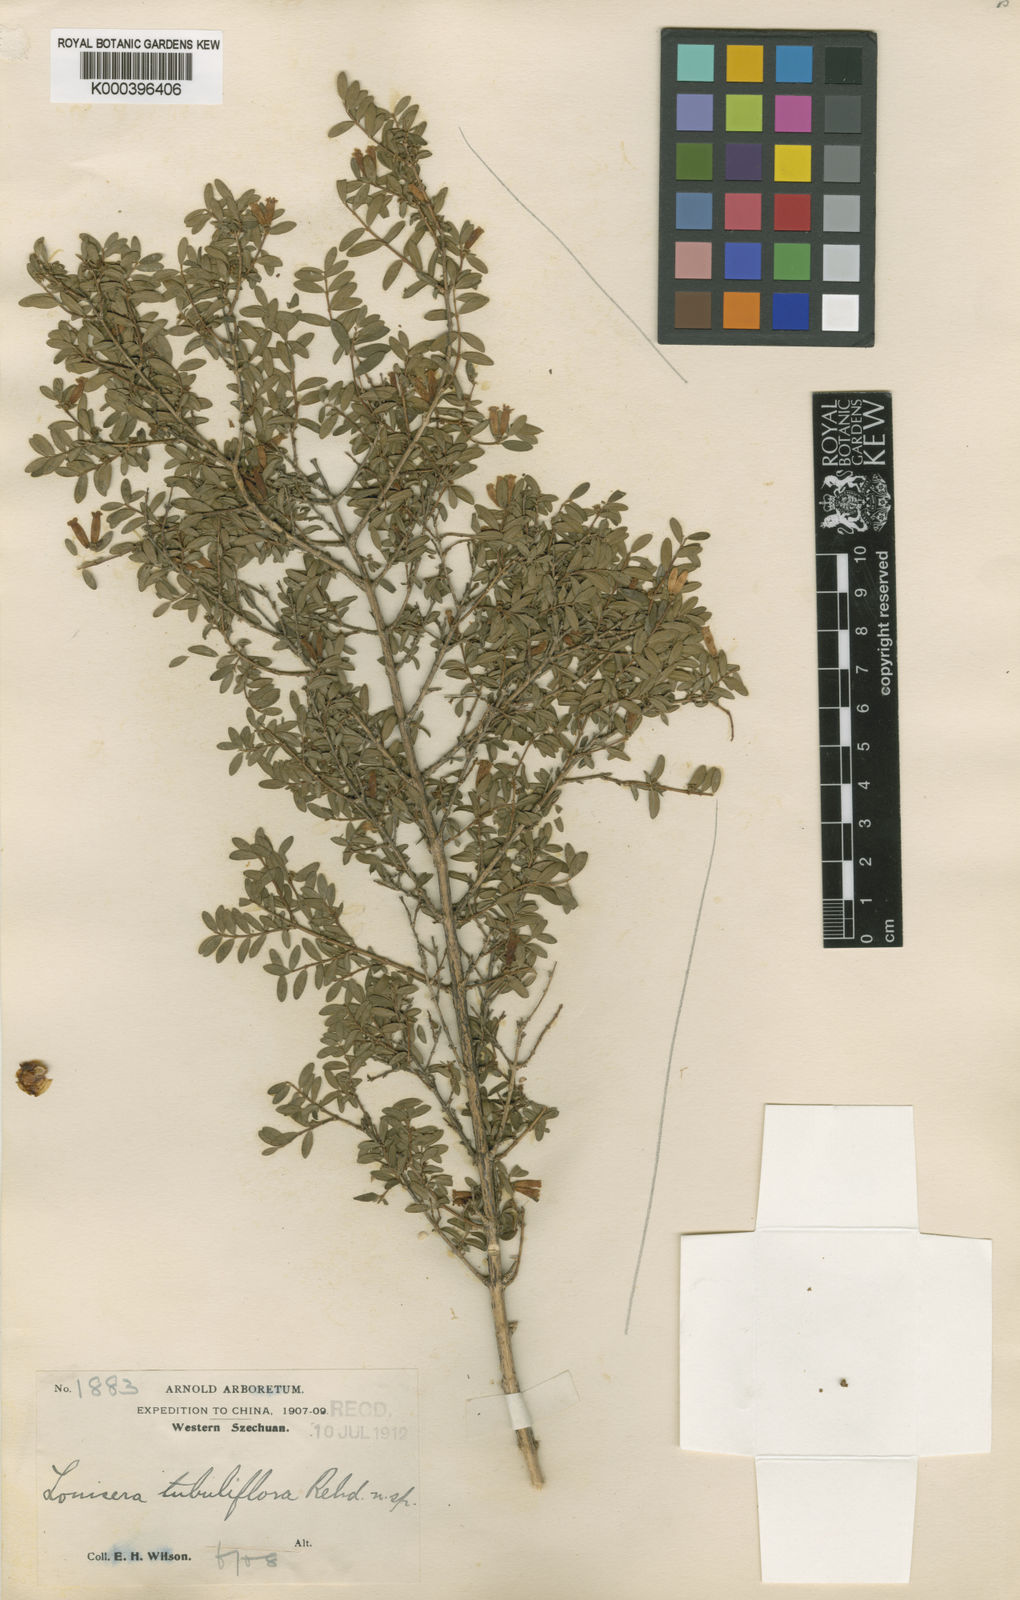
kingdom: Plantae
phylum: Tracheophyta
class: Magnoliopsida
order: Dipsacales
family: Caprifoliaceae
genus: Lonicera
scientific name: Lonicera tubuliflora
